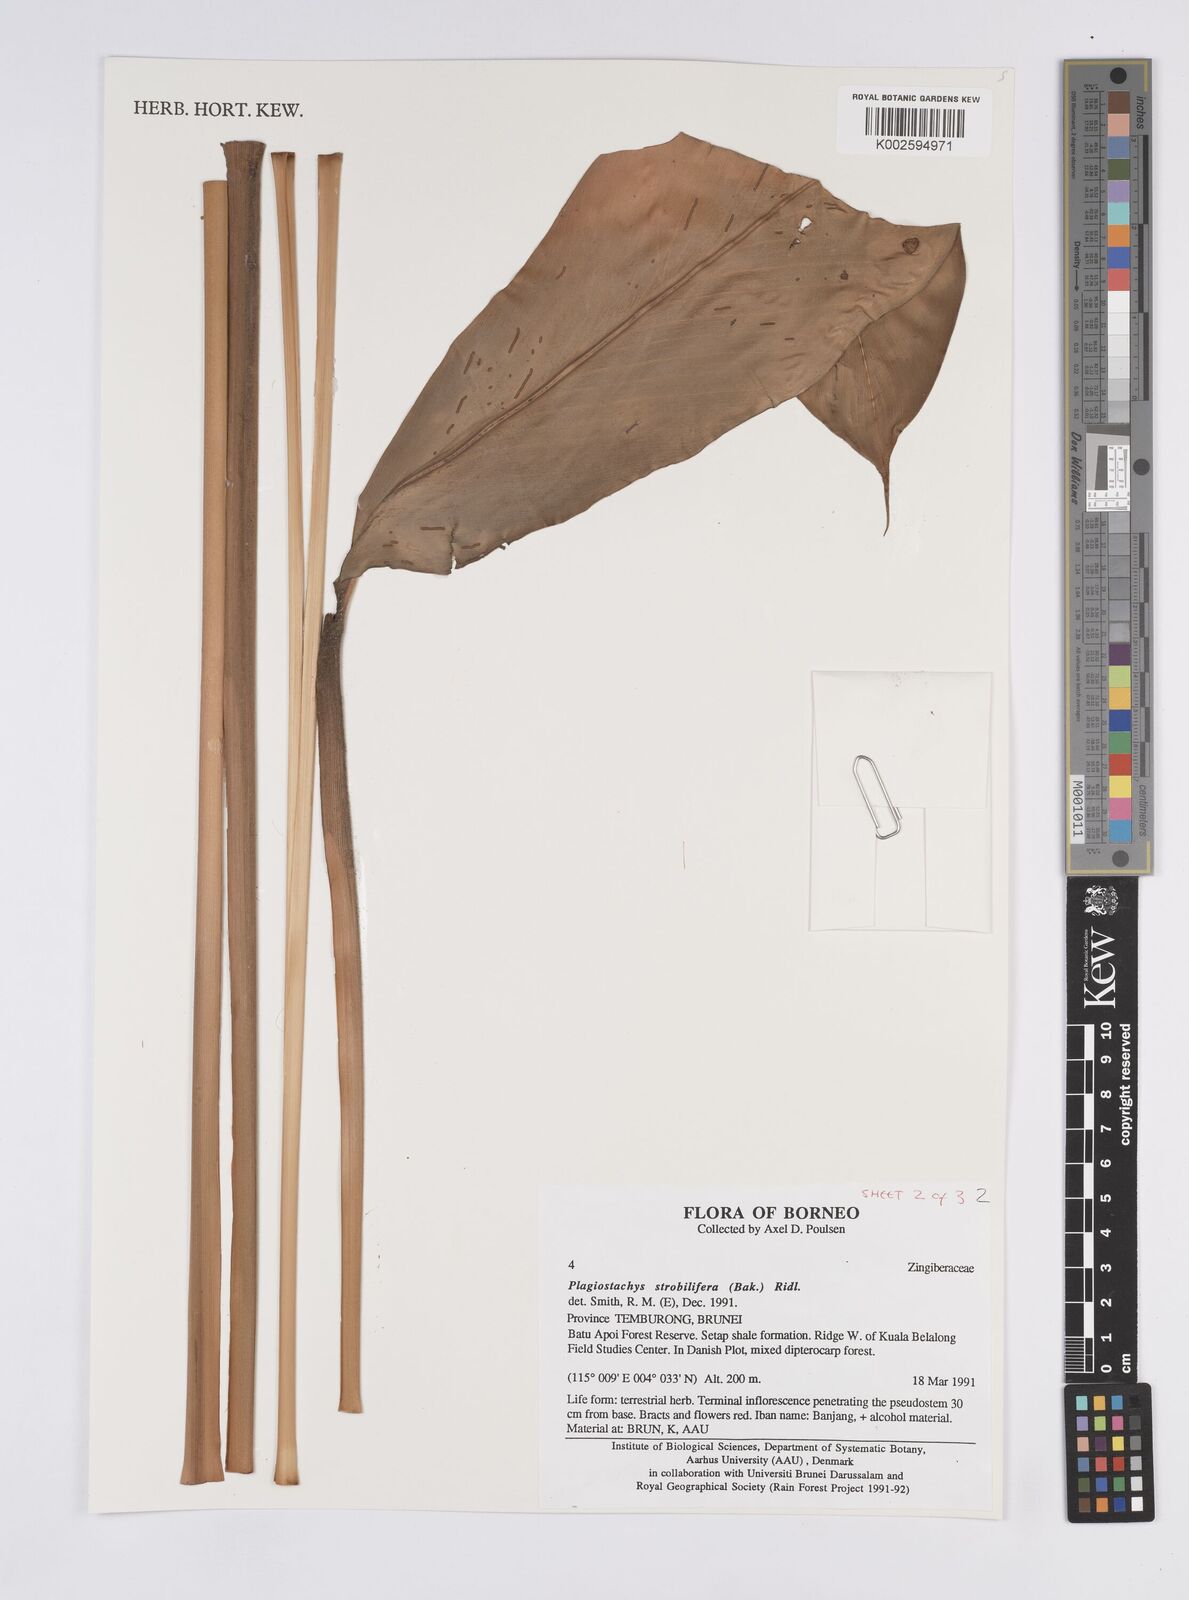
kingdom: Plantae
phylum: Tracheophyta
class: Liliopsida
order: Zingiberales
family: Zingiberaceae
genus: Plagiostachys
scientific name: Plagiostachys strobilifera
